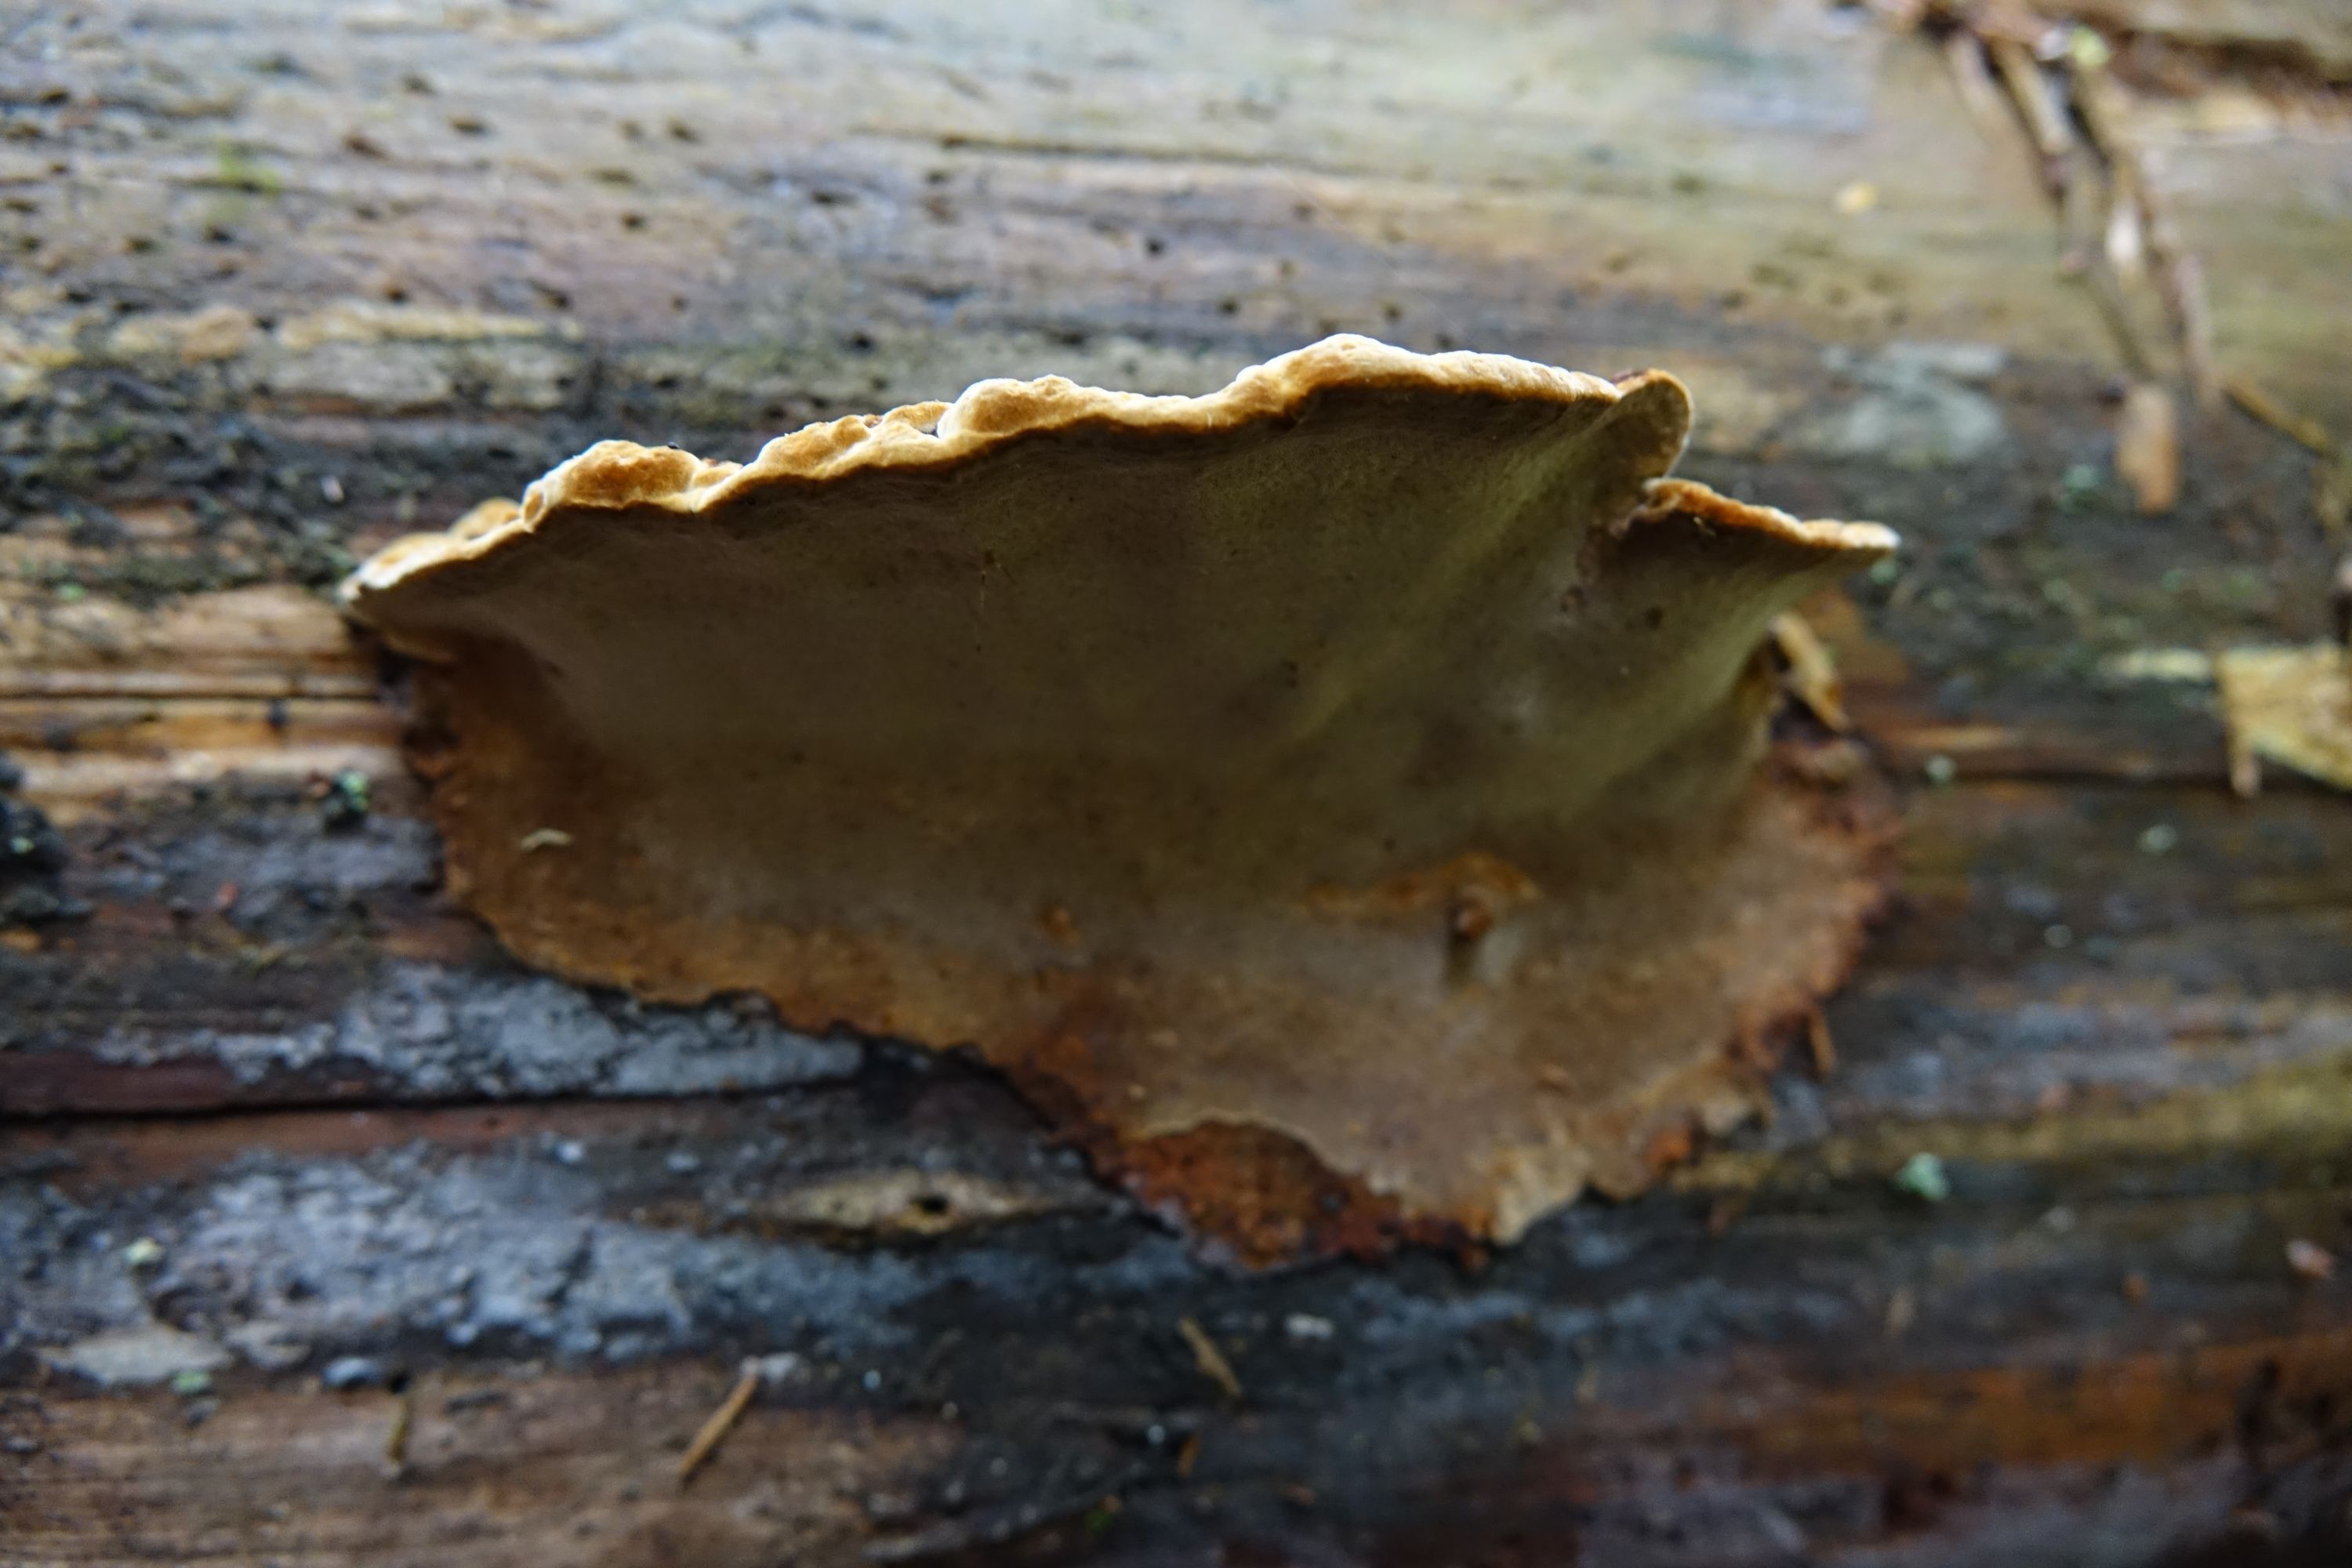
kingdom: Fungi
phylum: Basidiomycota
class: Agaricomycetes
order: Hymenochaetales
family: Hymenochaetaceae
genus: Phellopilus
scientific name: Phellopilus nigrolimitatus
